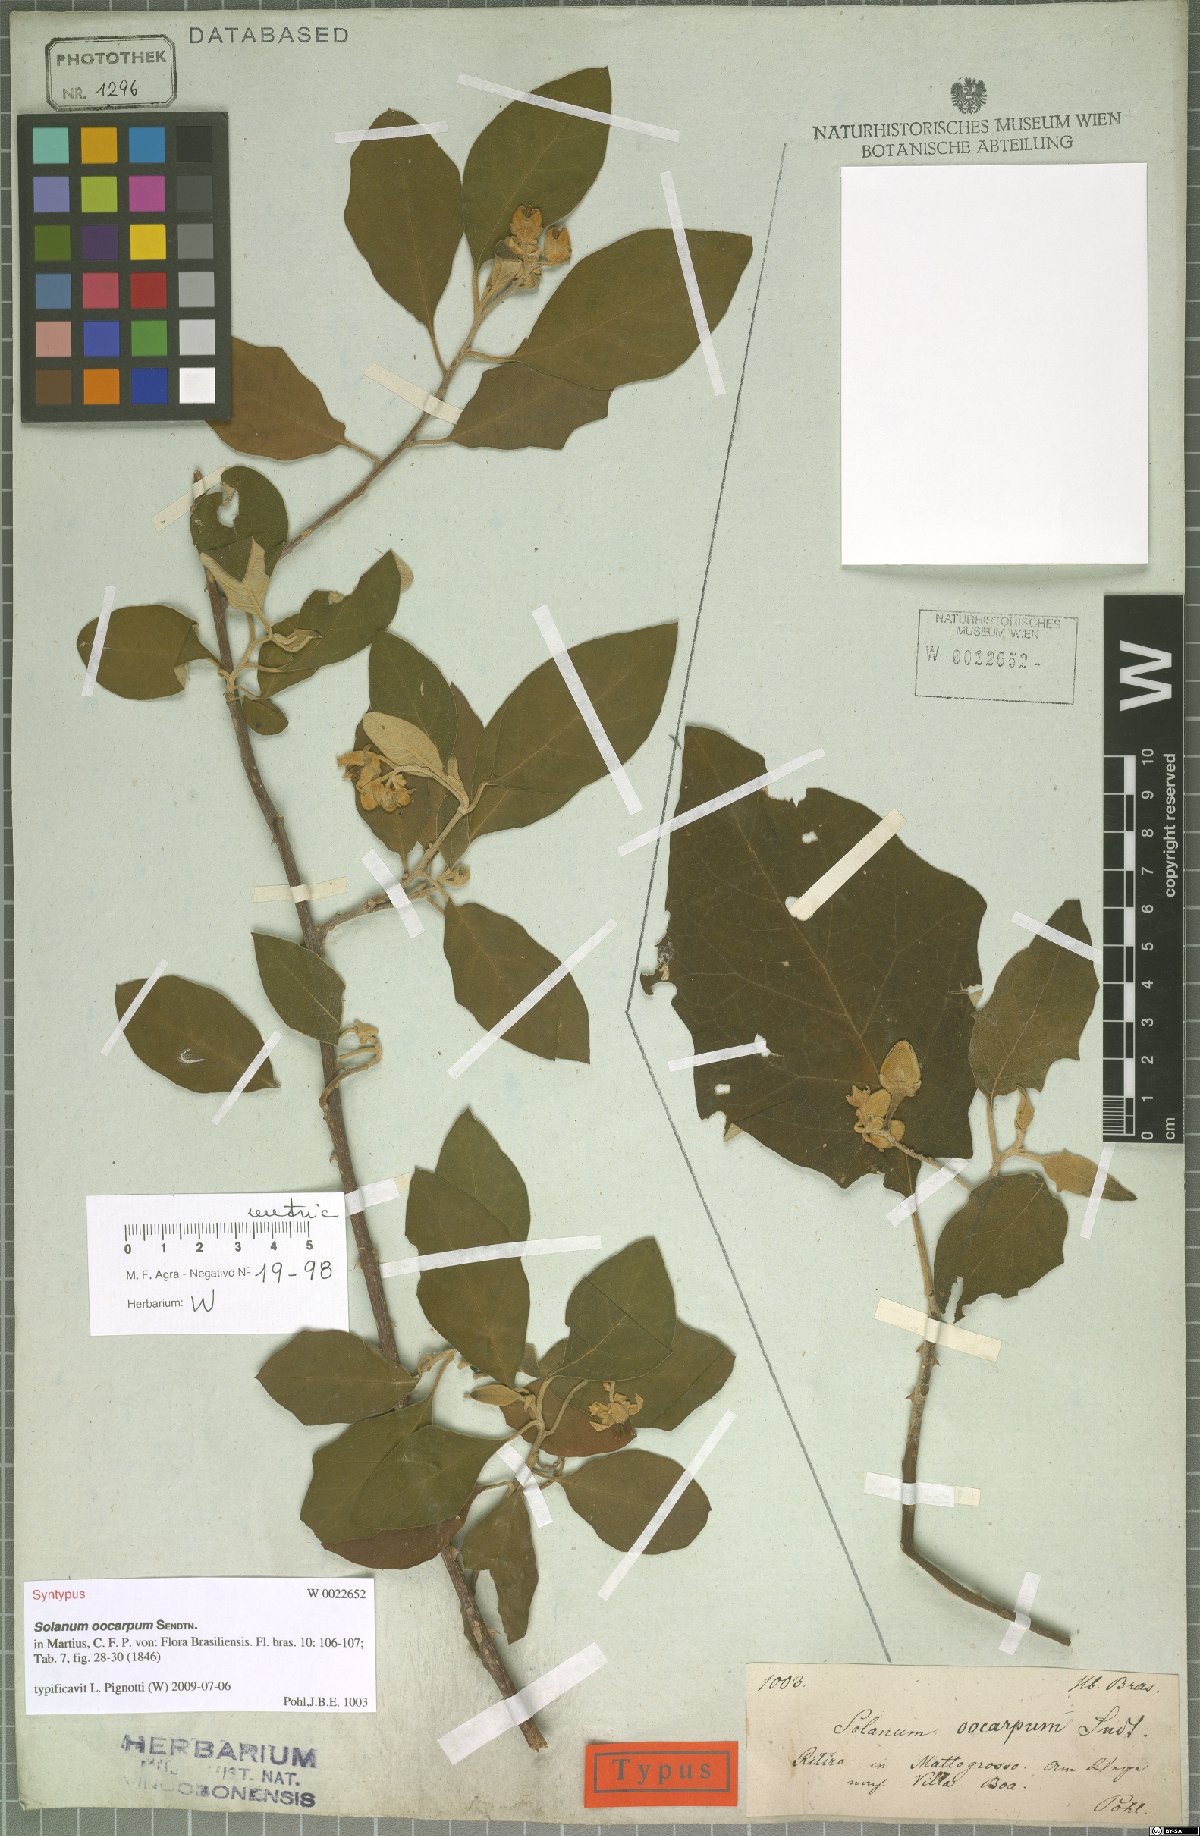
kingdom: Plantae
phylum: Tracheophyta
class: Magnoliopsida
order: Solanales
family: Solanaceae
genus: Solanum
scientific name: Solanum oocarpum
